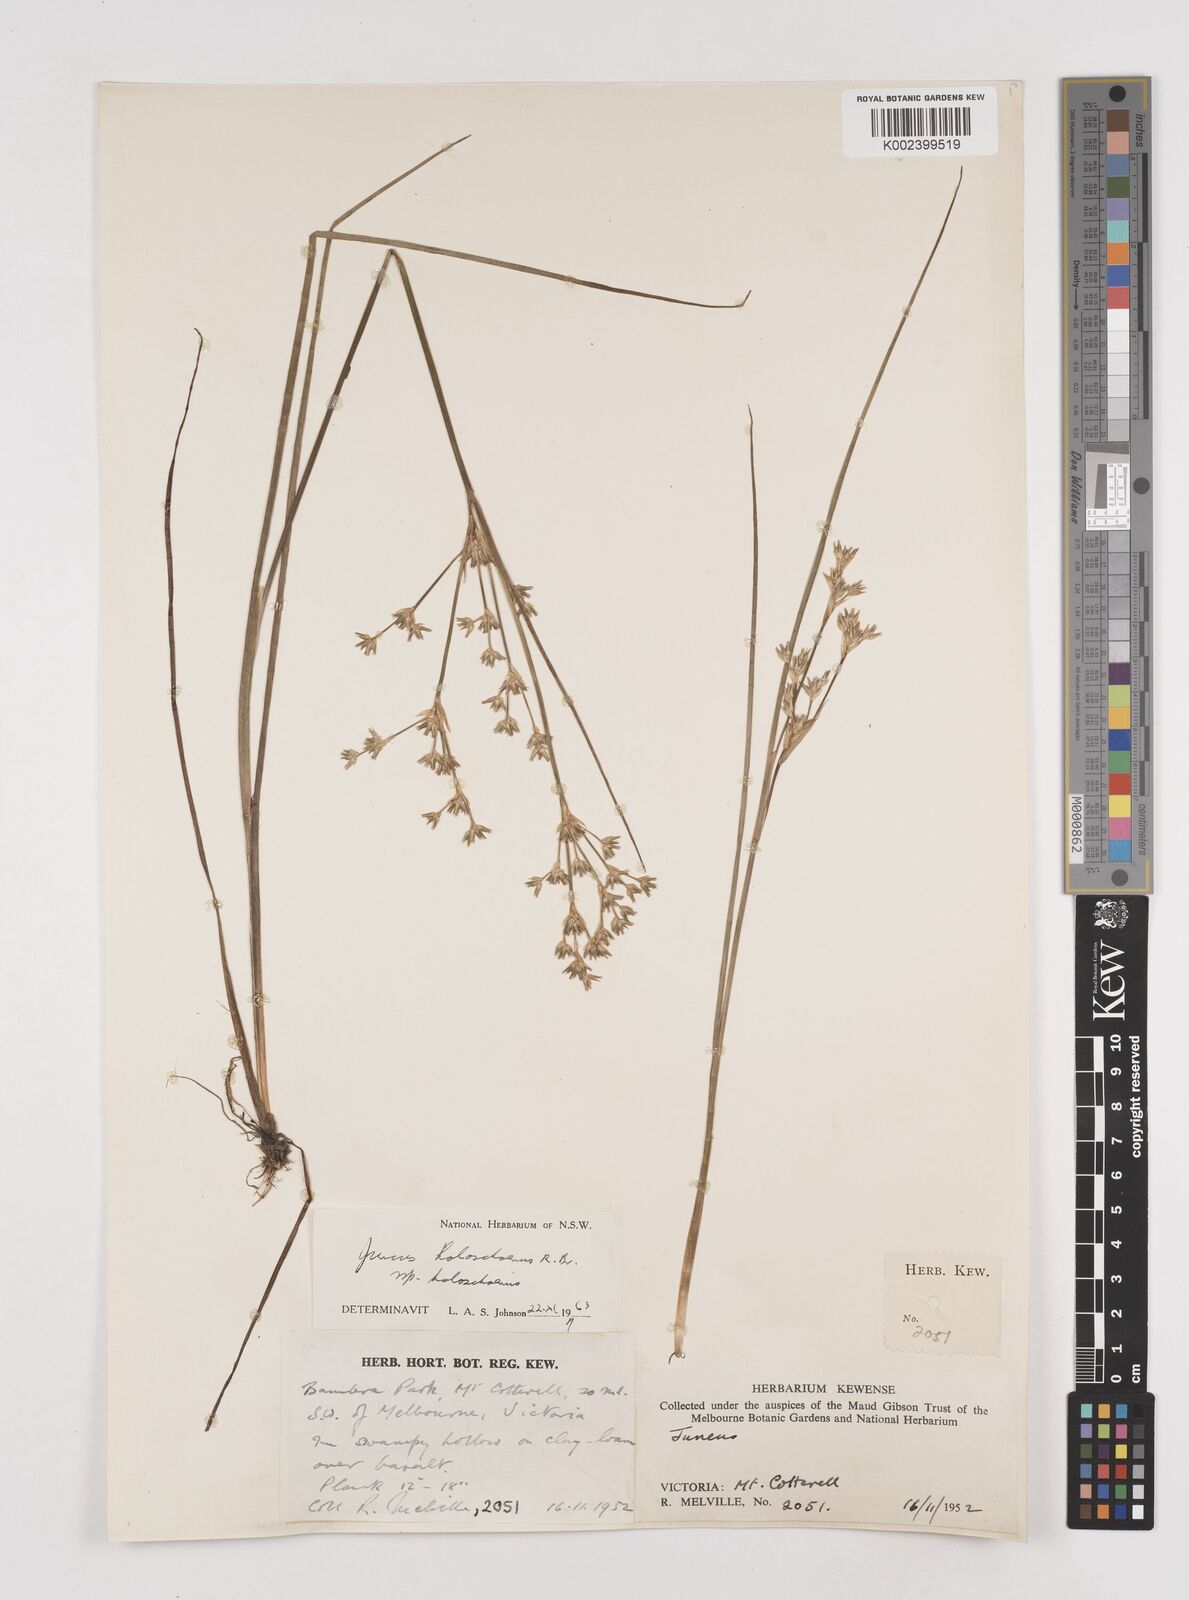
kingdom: Plantae
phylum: Tracheophyta
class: Liliopsida
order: Poales
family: Juncaceae
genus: Juncus
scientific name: Juncus holoschoenus
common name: Joint-leaf rush
